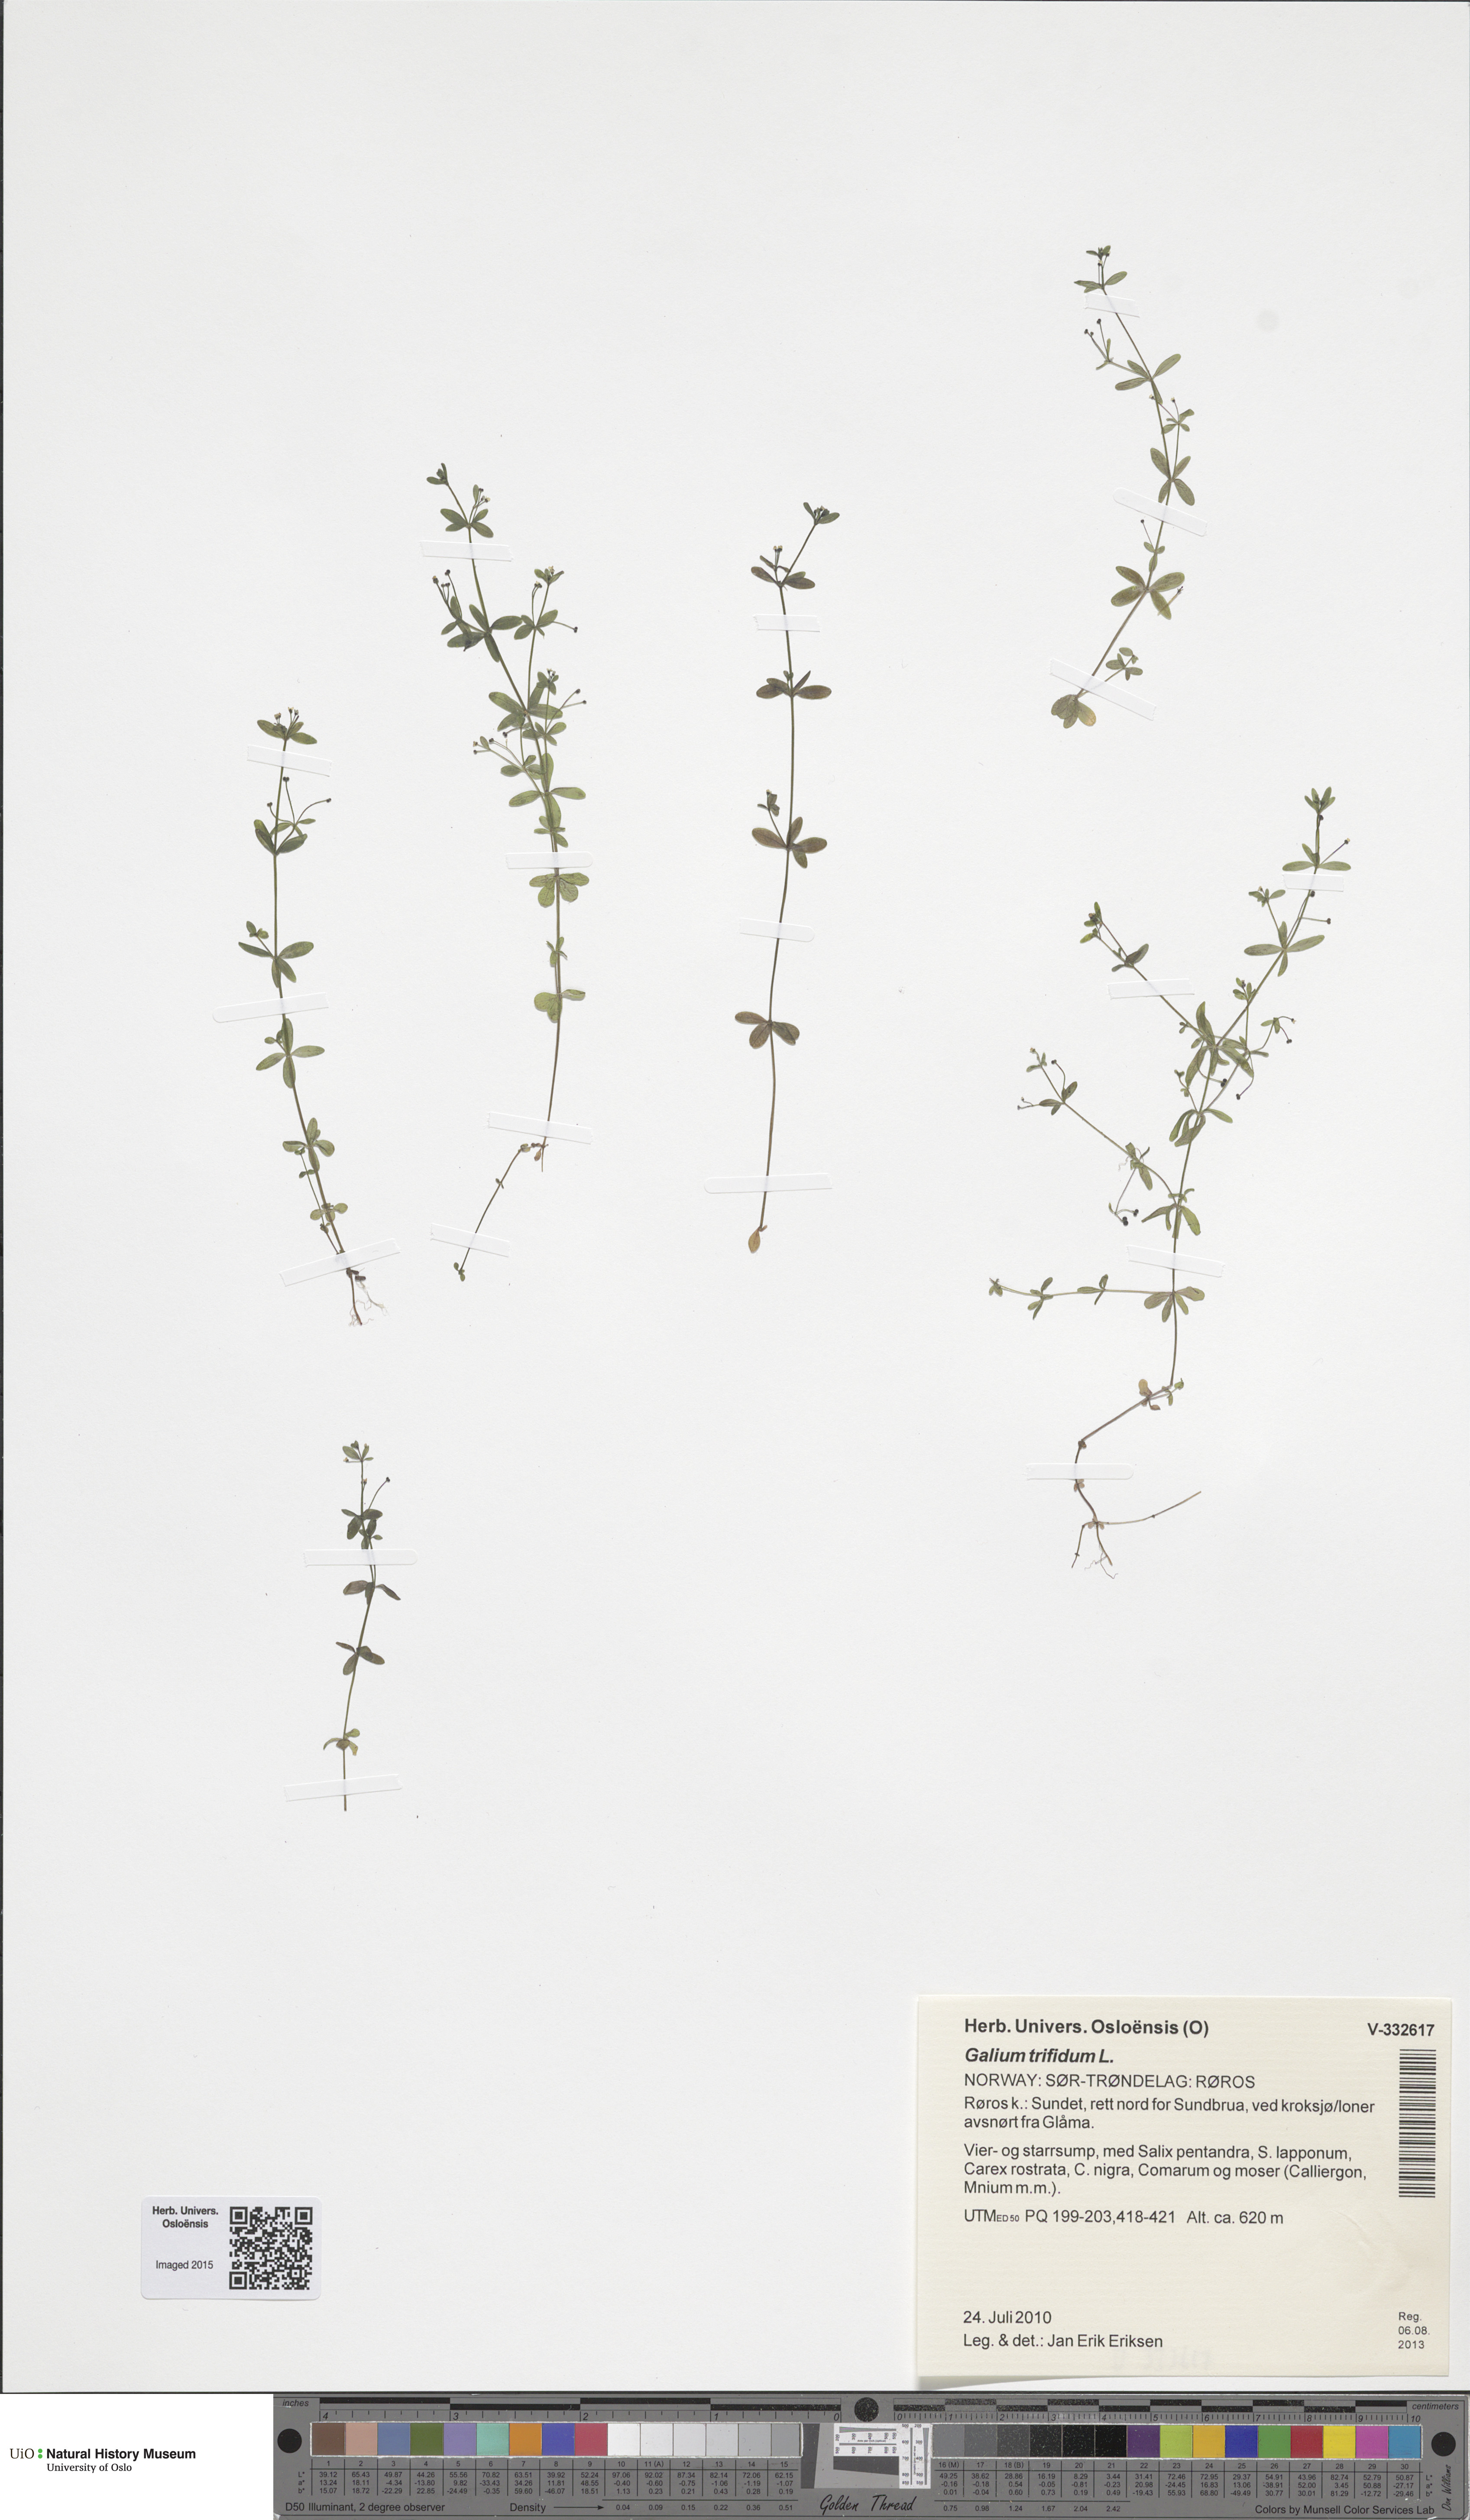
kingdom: Plantae
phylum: Tracheophyta
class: Magnoliopsida
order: Gentianales
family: Rubiaceae
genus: Galium
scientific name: Galium trifidum
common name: Small bedstraw
